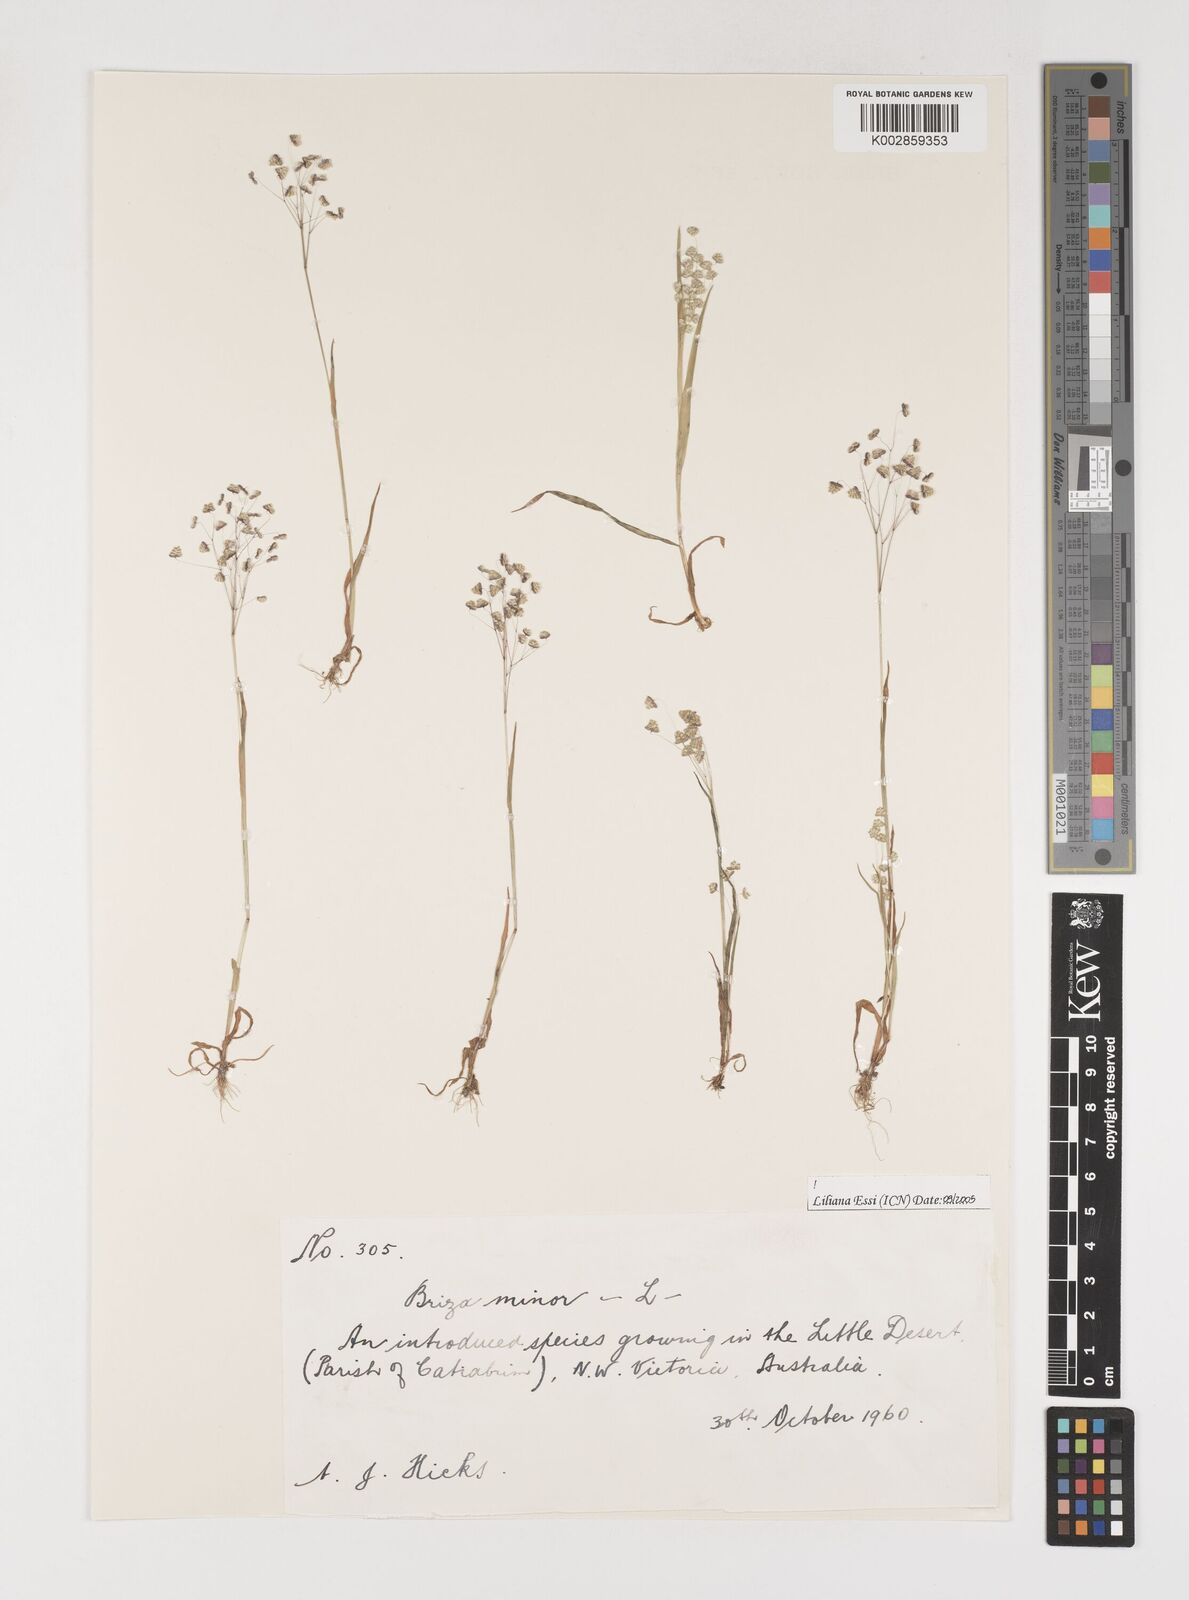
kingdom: Plantae
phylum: Tracheophyta
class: Liliopsida
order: Poales
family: Poaceae
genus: Briza
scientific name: Briza minor
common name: Lesser quaking-grass
